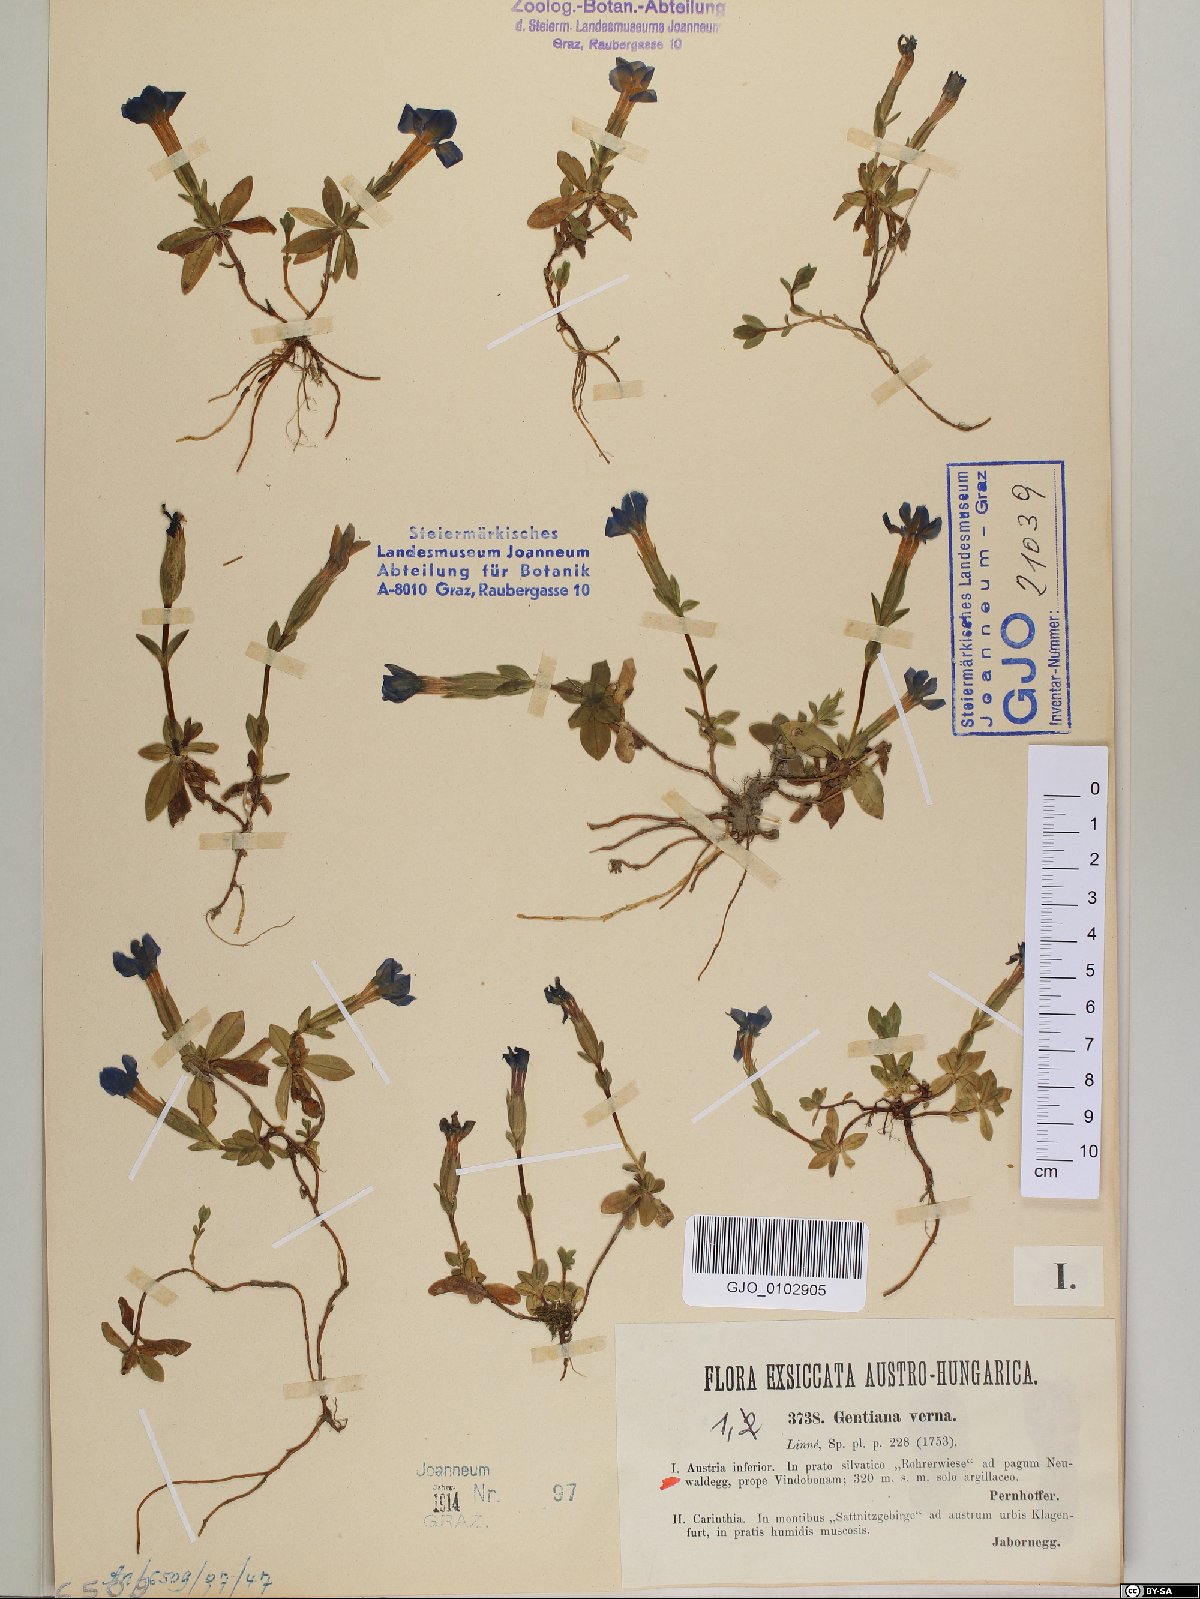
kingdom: Plantae
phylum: Tracheophyta
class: Magnoliopsida
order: Gentianales
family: Gentianaceae
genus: Gentiana
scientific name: Gentiana verna
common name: Spring gentian
